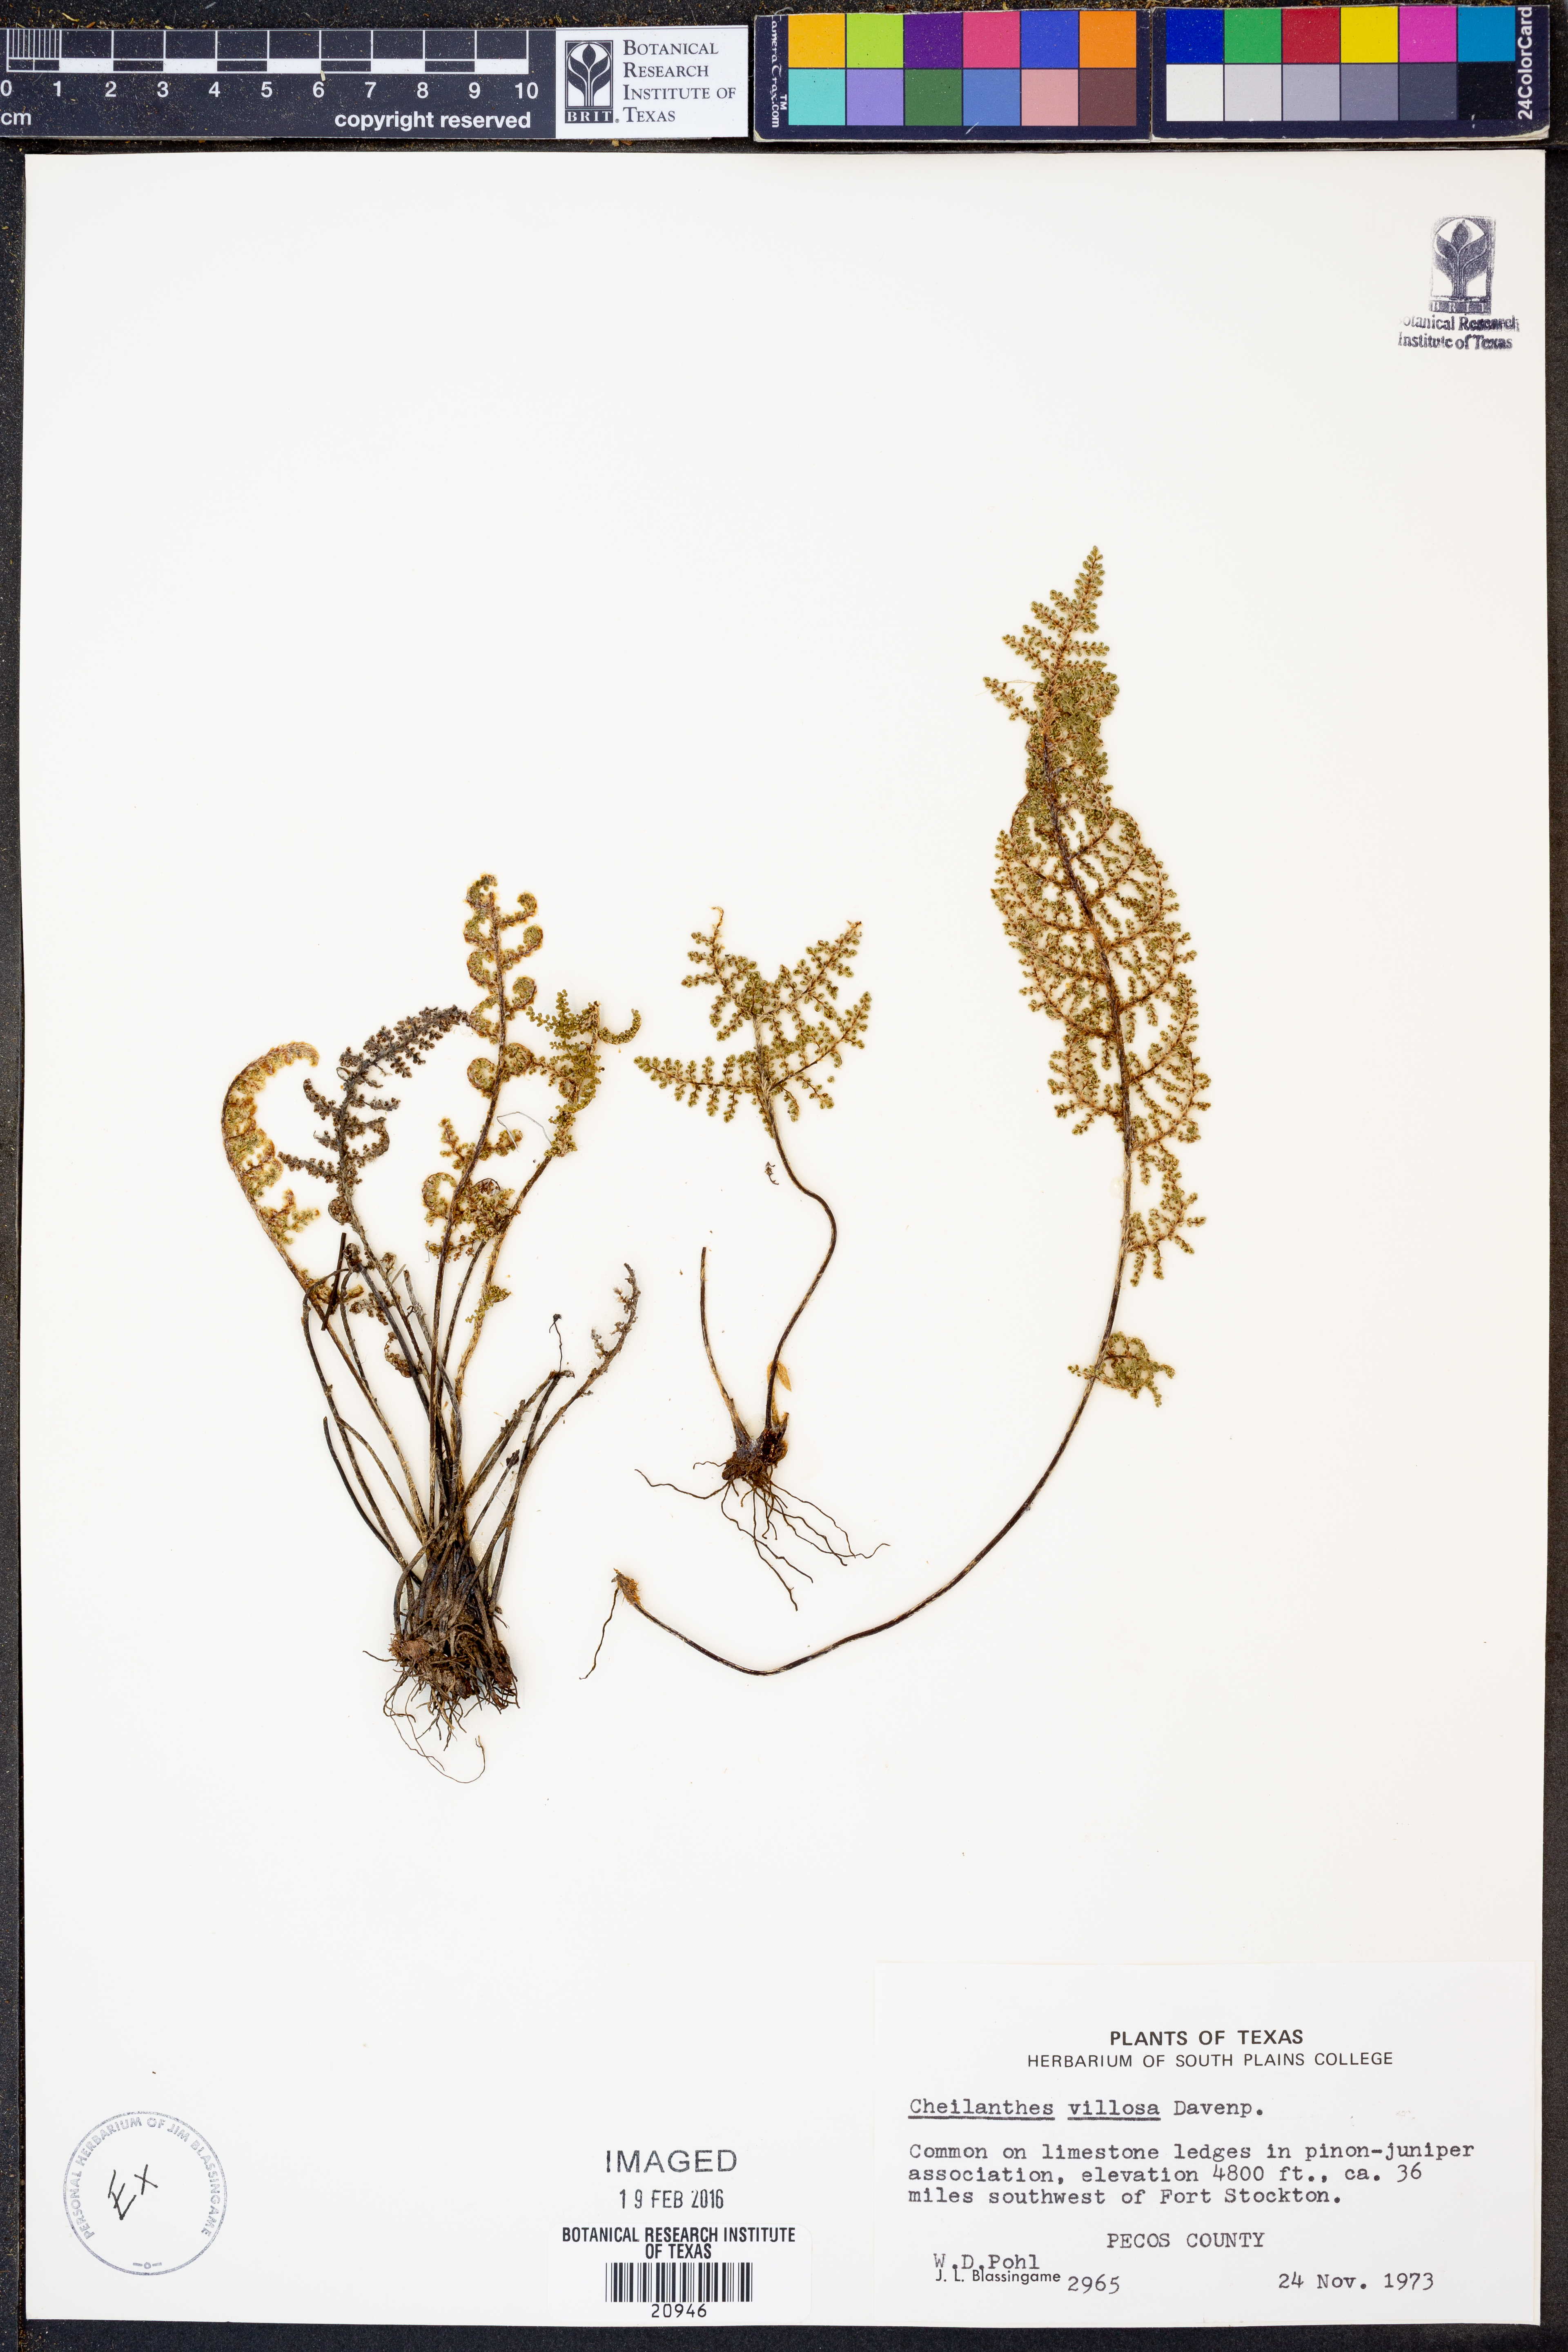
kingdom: Plantae
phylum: Tracheophyta
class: Polypodiopsida
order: Polypodiales
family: Pteridaceae
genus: Myriopteris
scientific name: Myriopteris windhamii
